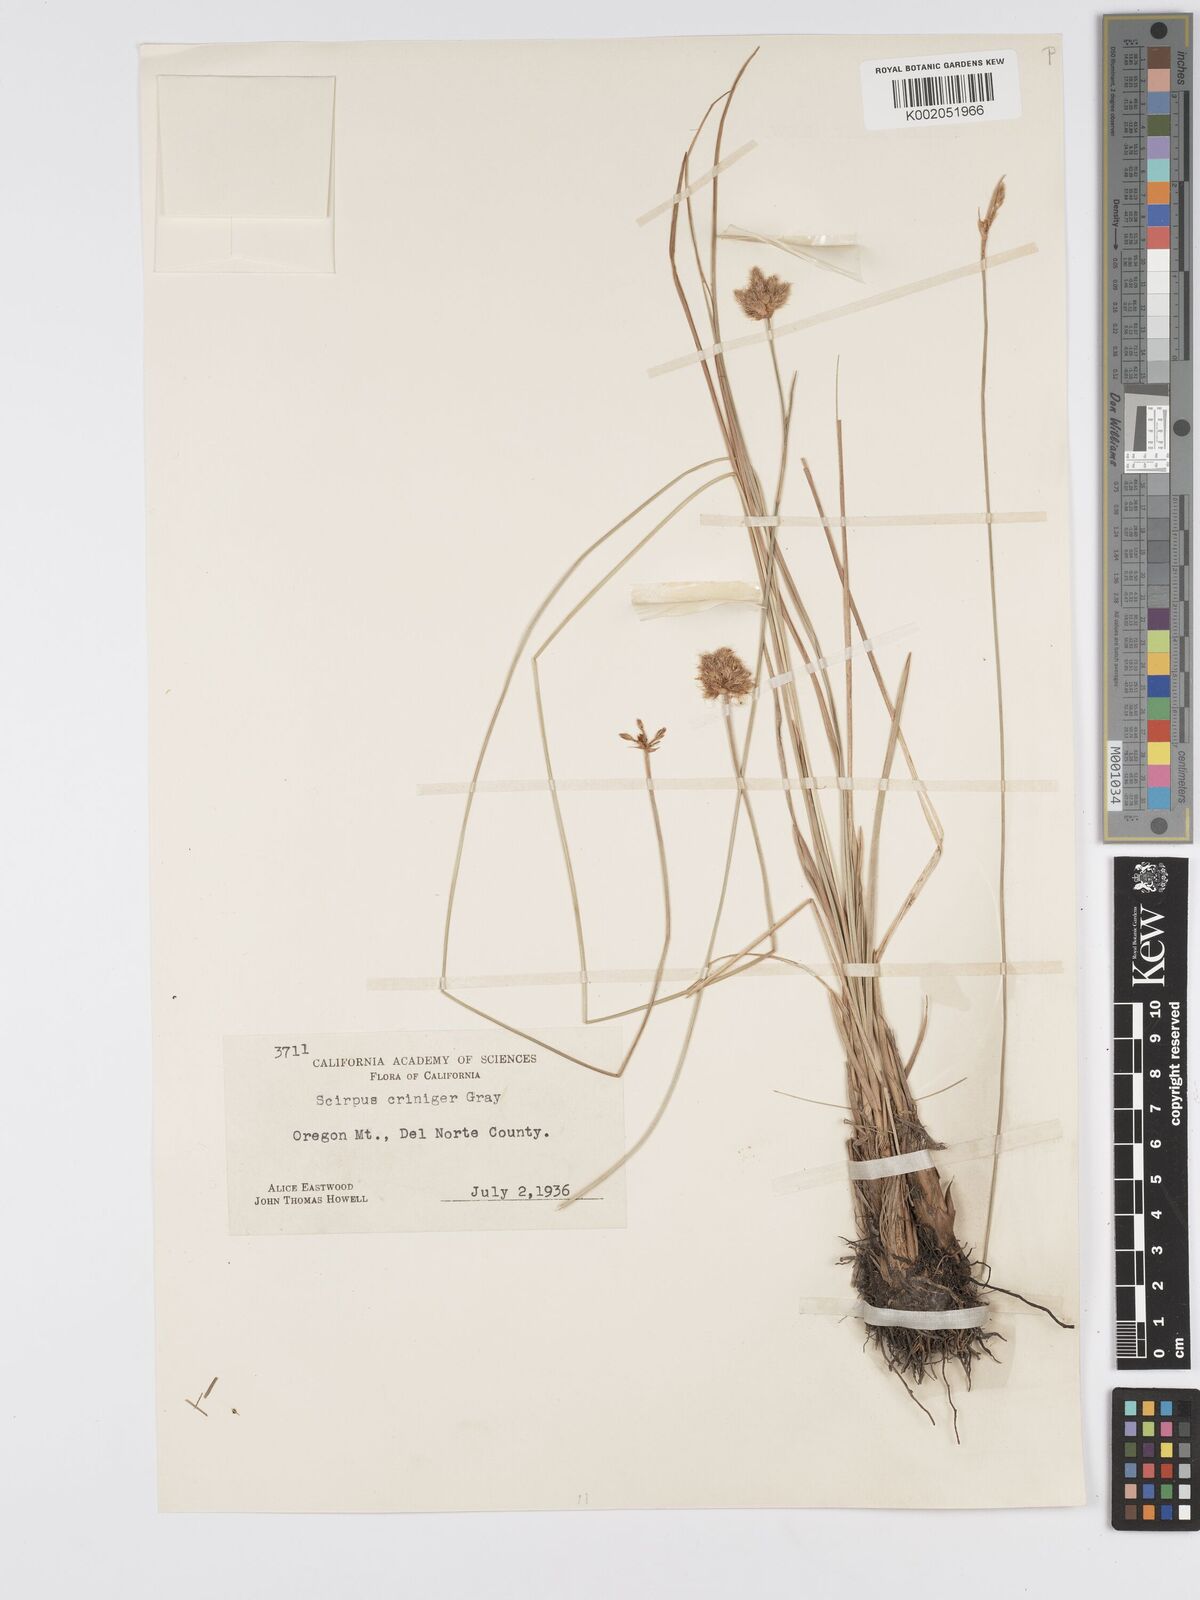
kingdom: Plantae
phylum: Tracheophyta
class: Liliopsida
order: Poales
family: Cyperaceae
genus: Calliscirpus
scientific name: Calliscirpus criniger
